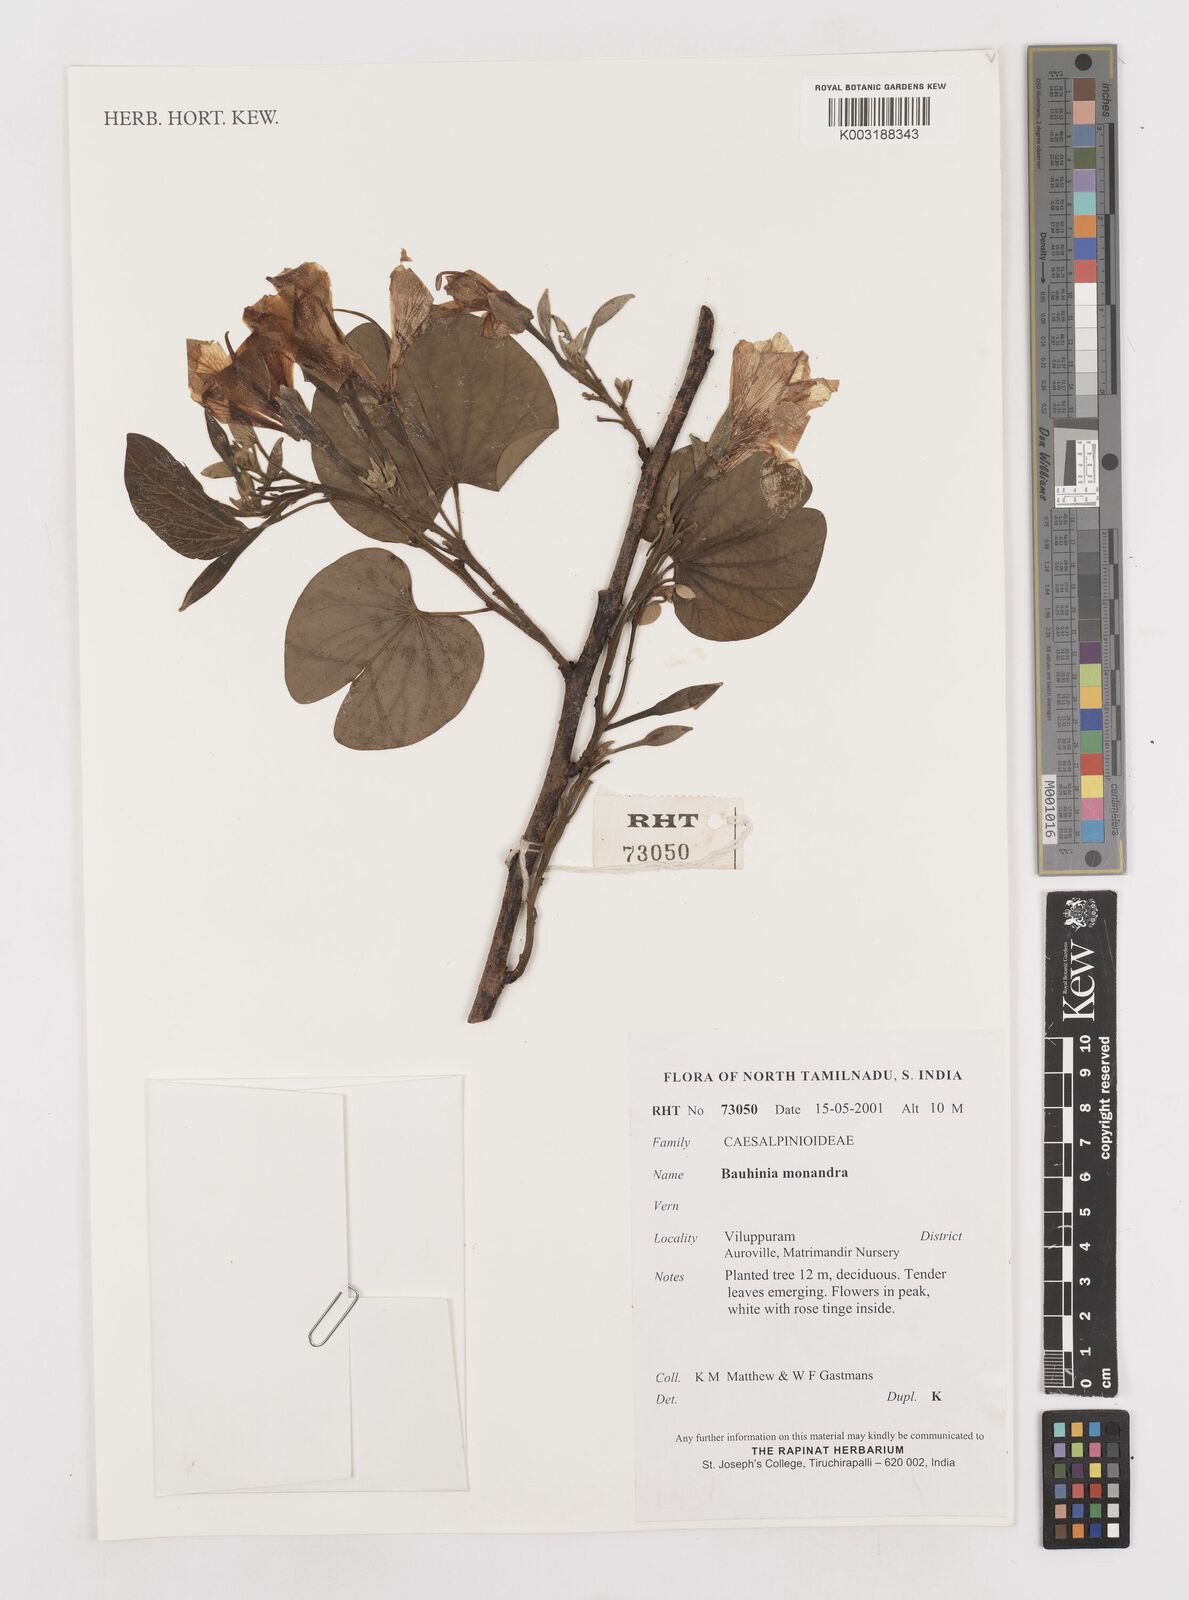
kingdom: Plantae
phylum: Tracheophyta
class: Magnoliopsida
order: Fabales
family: Fabaceae
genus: Bauhinia
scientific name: Bauhinia monandra
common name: Napoleon's plume
